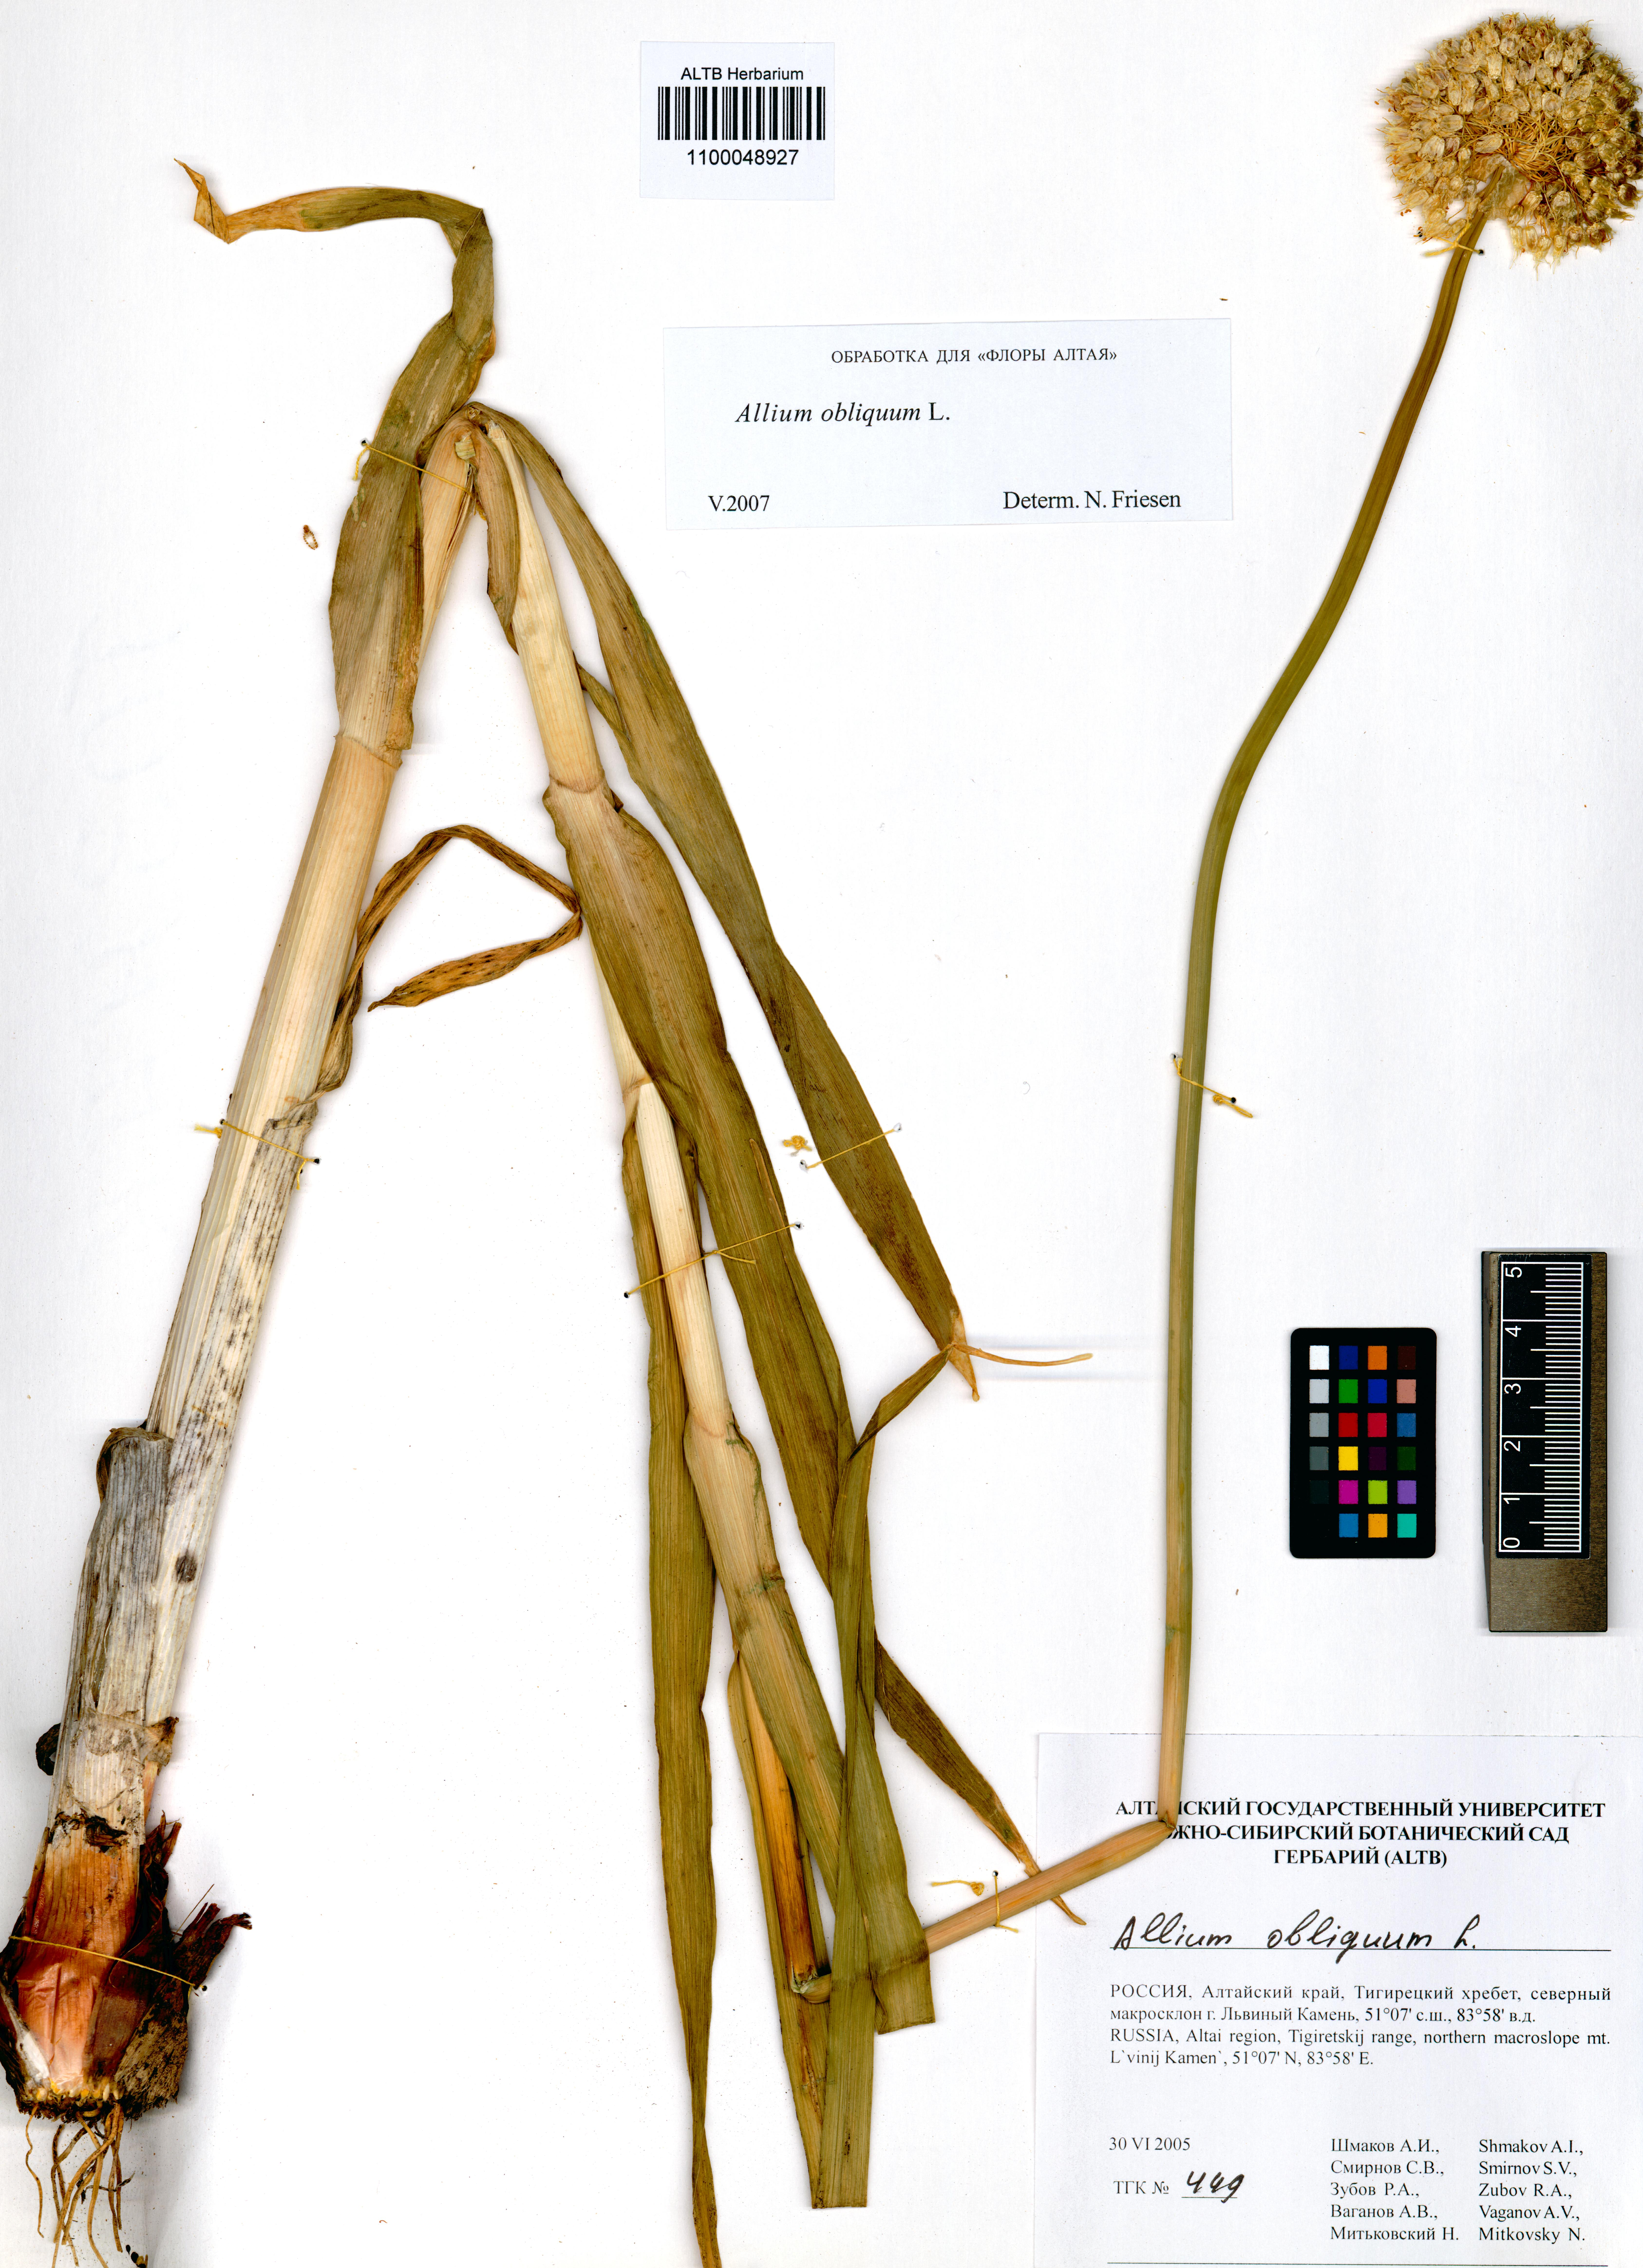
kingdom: Plantae
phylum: Tracheophyta
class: Liliopsida
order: Asparagales
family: Amaryllidaceae
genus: Allium
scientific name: Allium obliquum
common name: Oblique onion
